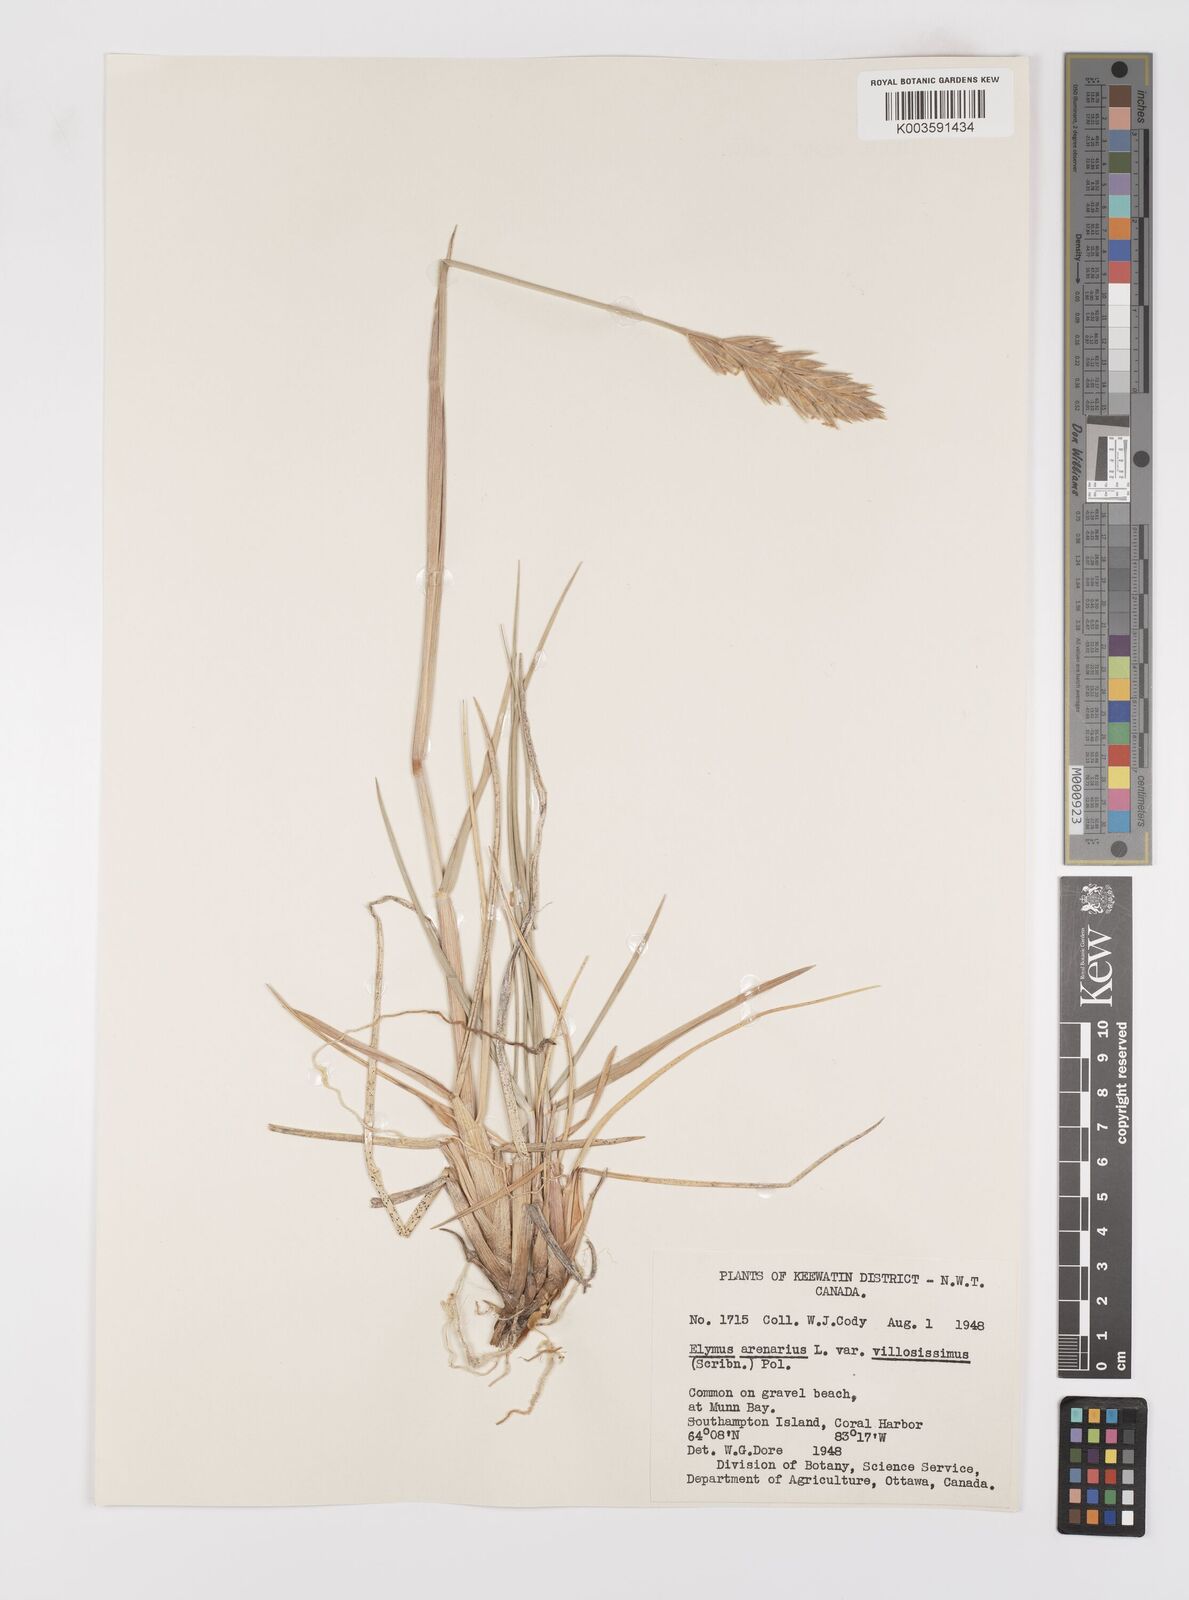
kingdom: Plantae
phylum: Tracheophyta
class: Liliopsida
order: Poales
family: Poaceae
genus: Leymus
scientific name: Leymus mollis
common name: American dune grass
